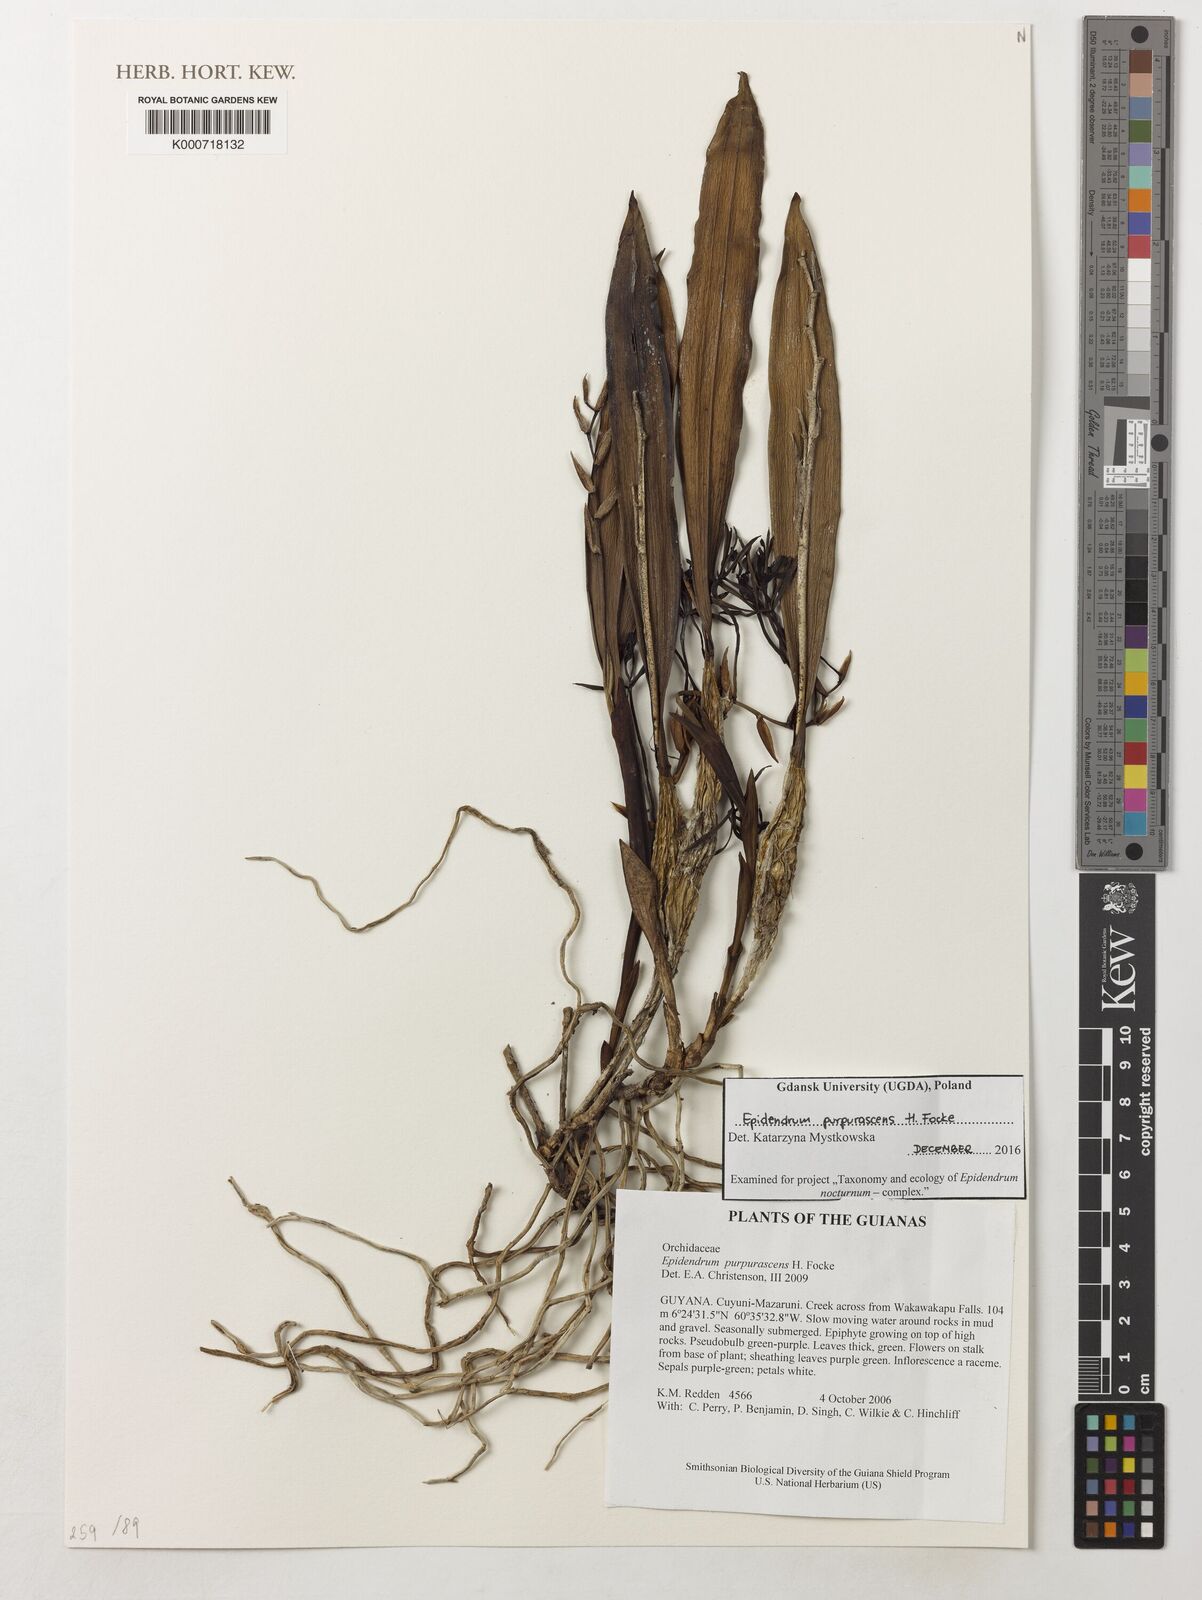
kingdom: Plantae
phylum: Tracheophyta
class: Liliopsida
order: Asparagales
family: Orchidaceae
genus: Epidendrum
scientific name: Epidendrum purpurascens
